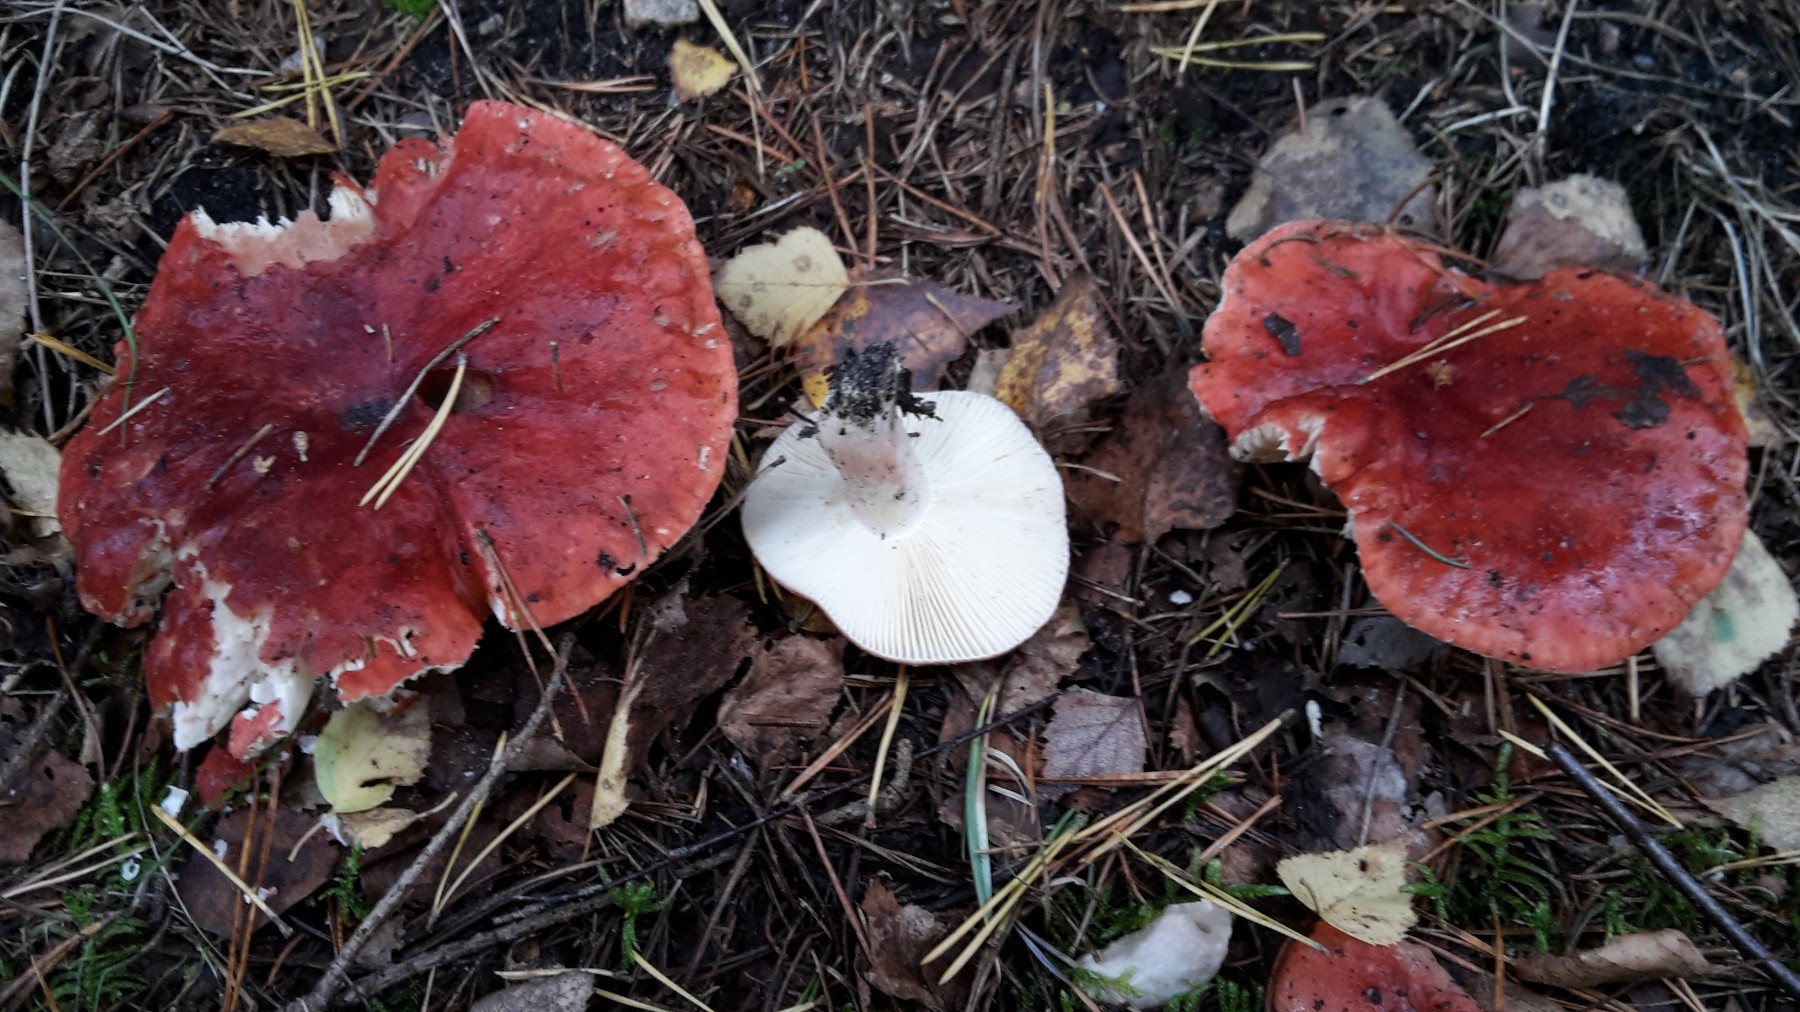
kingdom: Fungi
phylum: Basidiomycota
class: Agaricomycetes
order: Russulales
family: Russulaceae
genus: Russula
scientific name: Russula sanguinea
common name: blodrød skørhat
